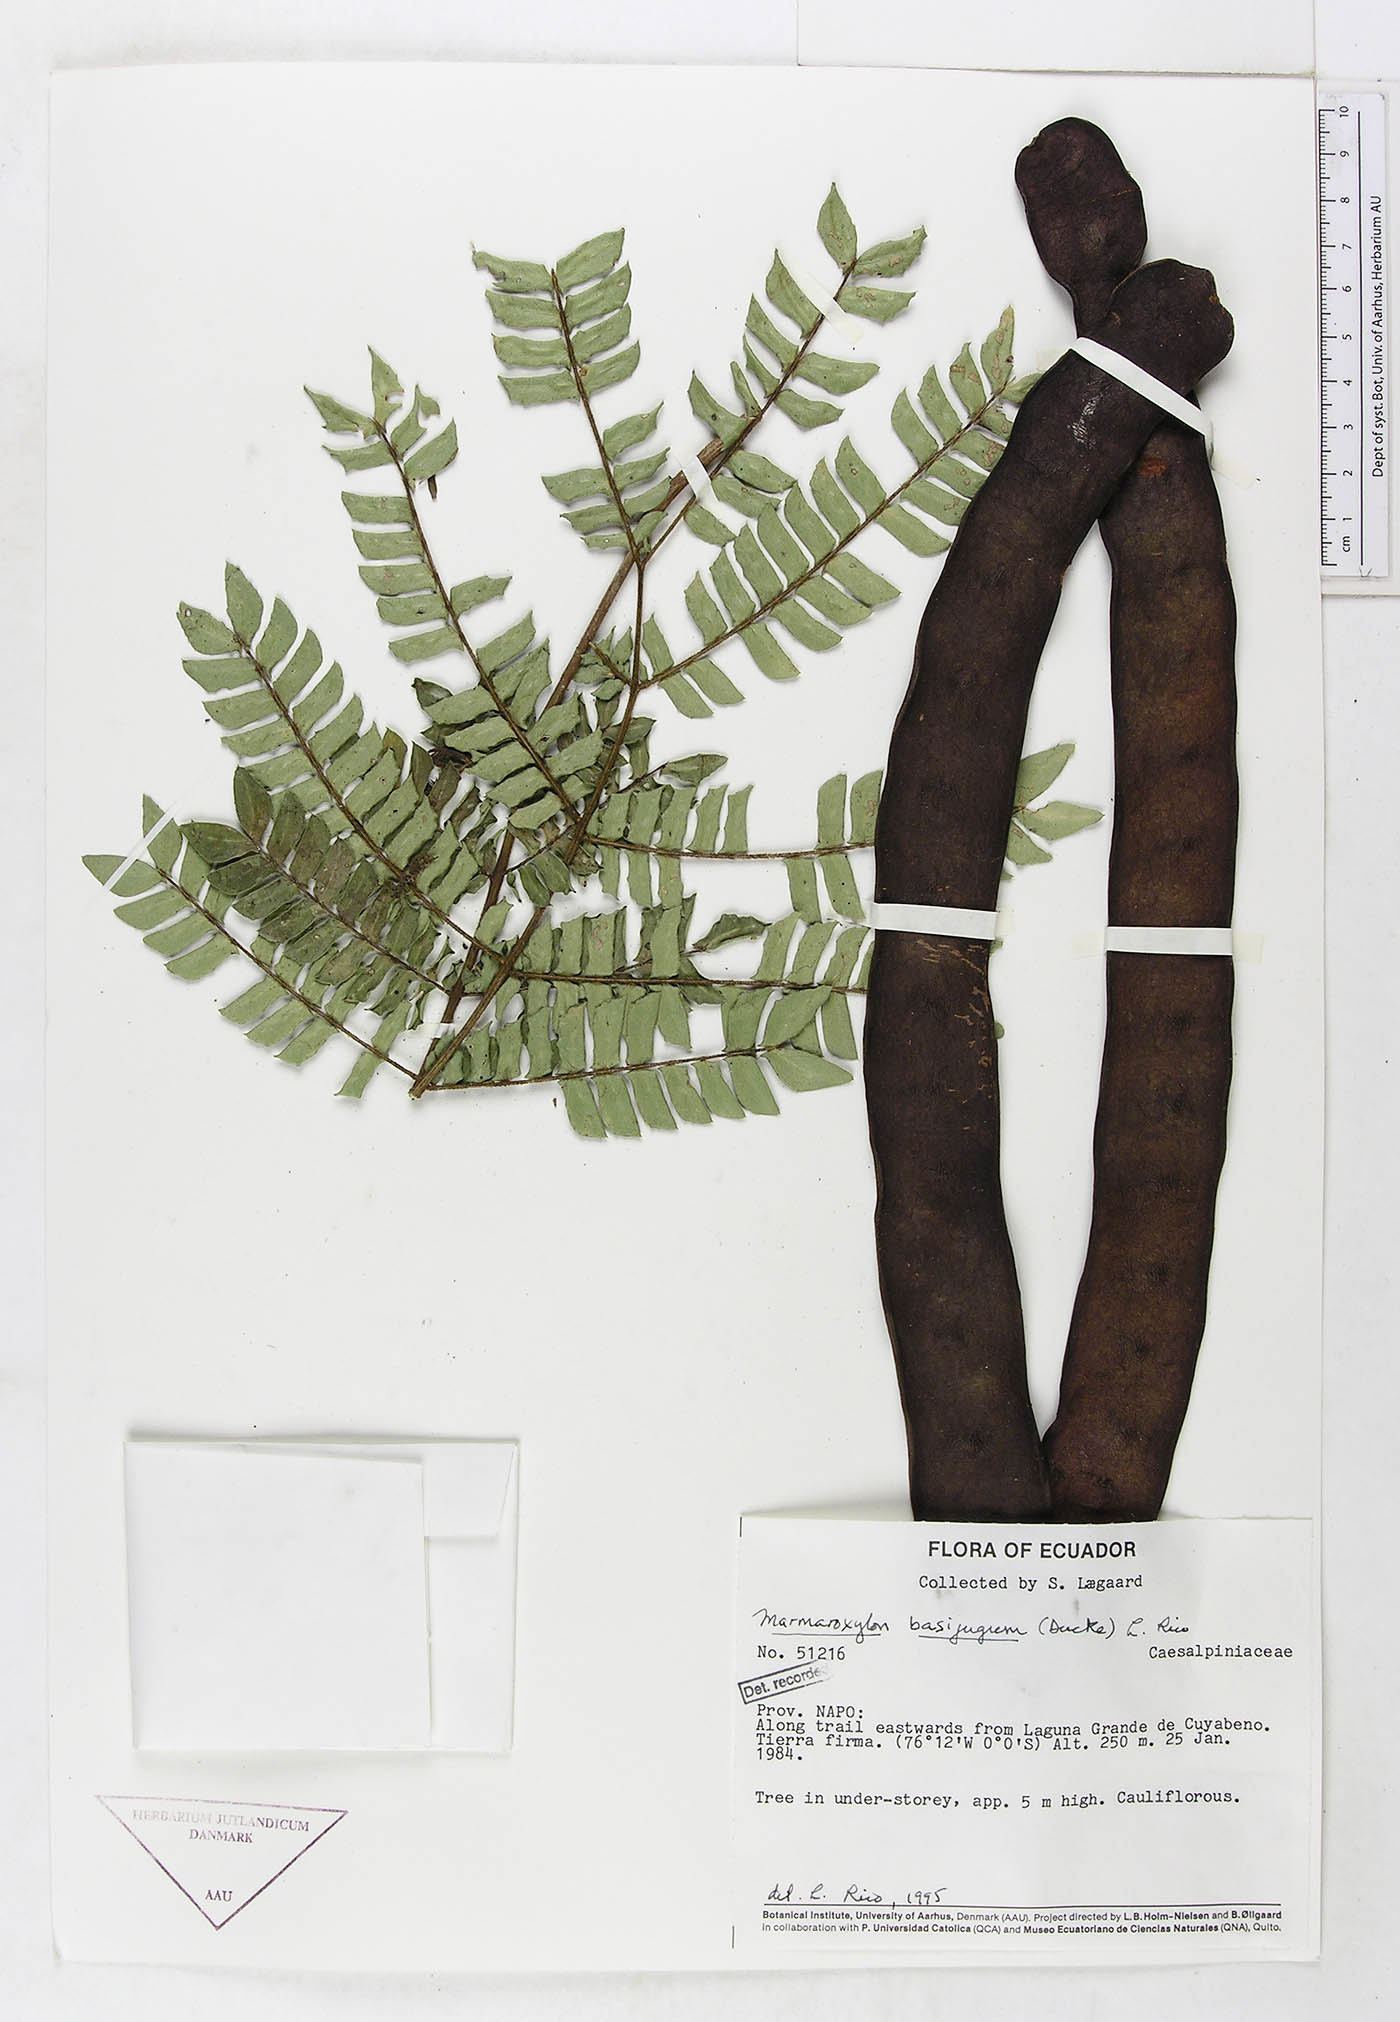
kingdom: Plantae
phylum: Tracheophyta
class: Magnoliopsida
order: Fabales
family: Fabaceae
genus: Zygia
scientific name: Zygia basijuga
